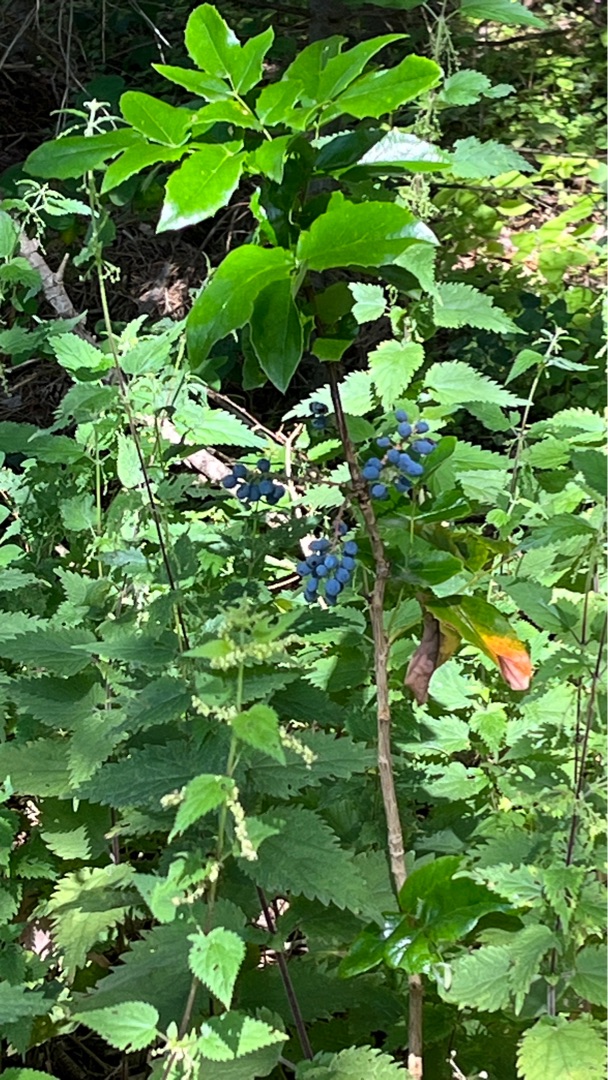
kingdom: Plantae
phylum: Tracheophyta
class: Magnoliopsida
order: Ranunculales
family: Berberidaceae
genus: Mahonia
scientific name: Mahonia aquifolium
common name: Almindelig mahonie
